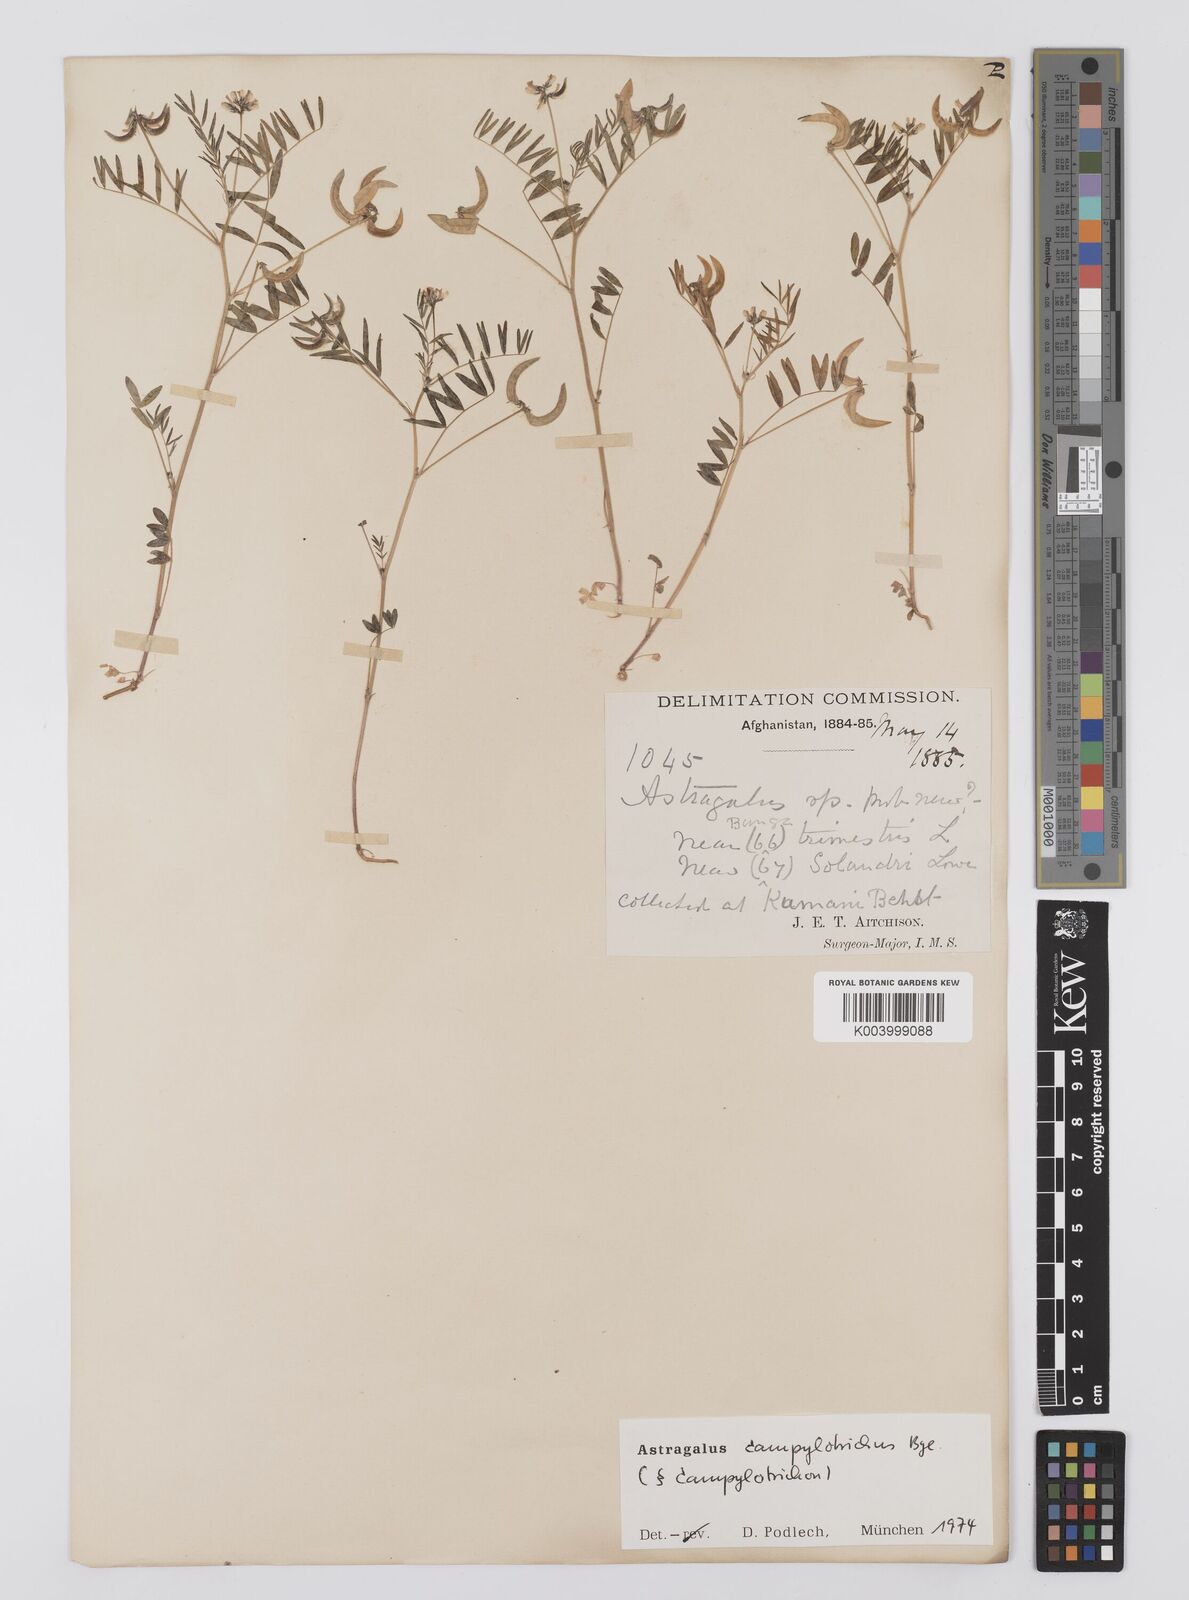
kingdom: Plantae
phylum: Tracheophyta
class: Magnoliopsida
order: Fabales
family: Fabaceae
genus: Astragalus
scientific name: Astragalus campylotrichus
